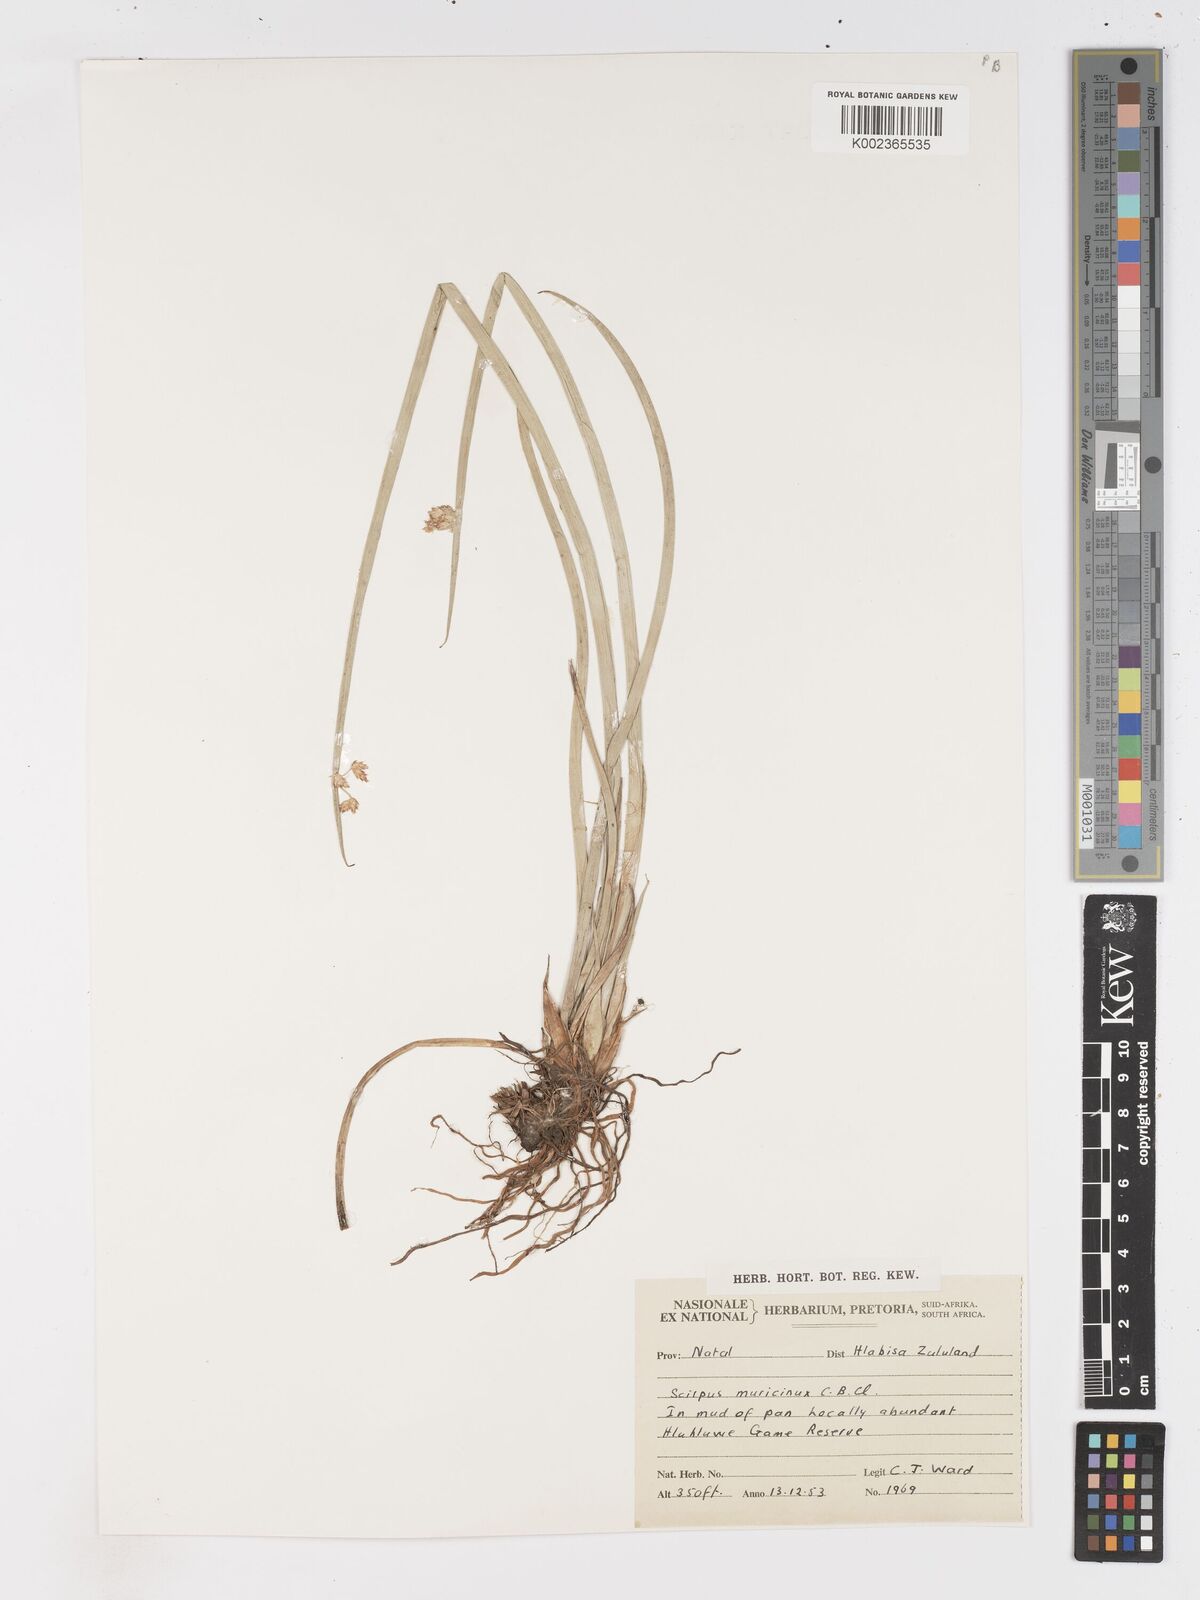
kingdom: Plantae
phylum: Tracheophyta
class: Liliopsida
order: Poales
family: Cyperaceae
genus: Schoenoplectiella
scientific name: Schoenoplectiella muricinux
